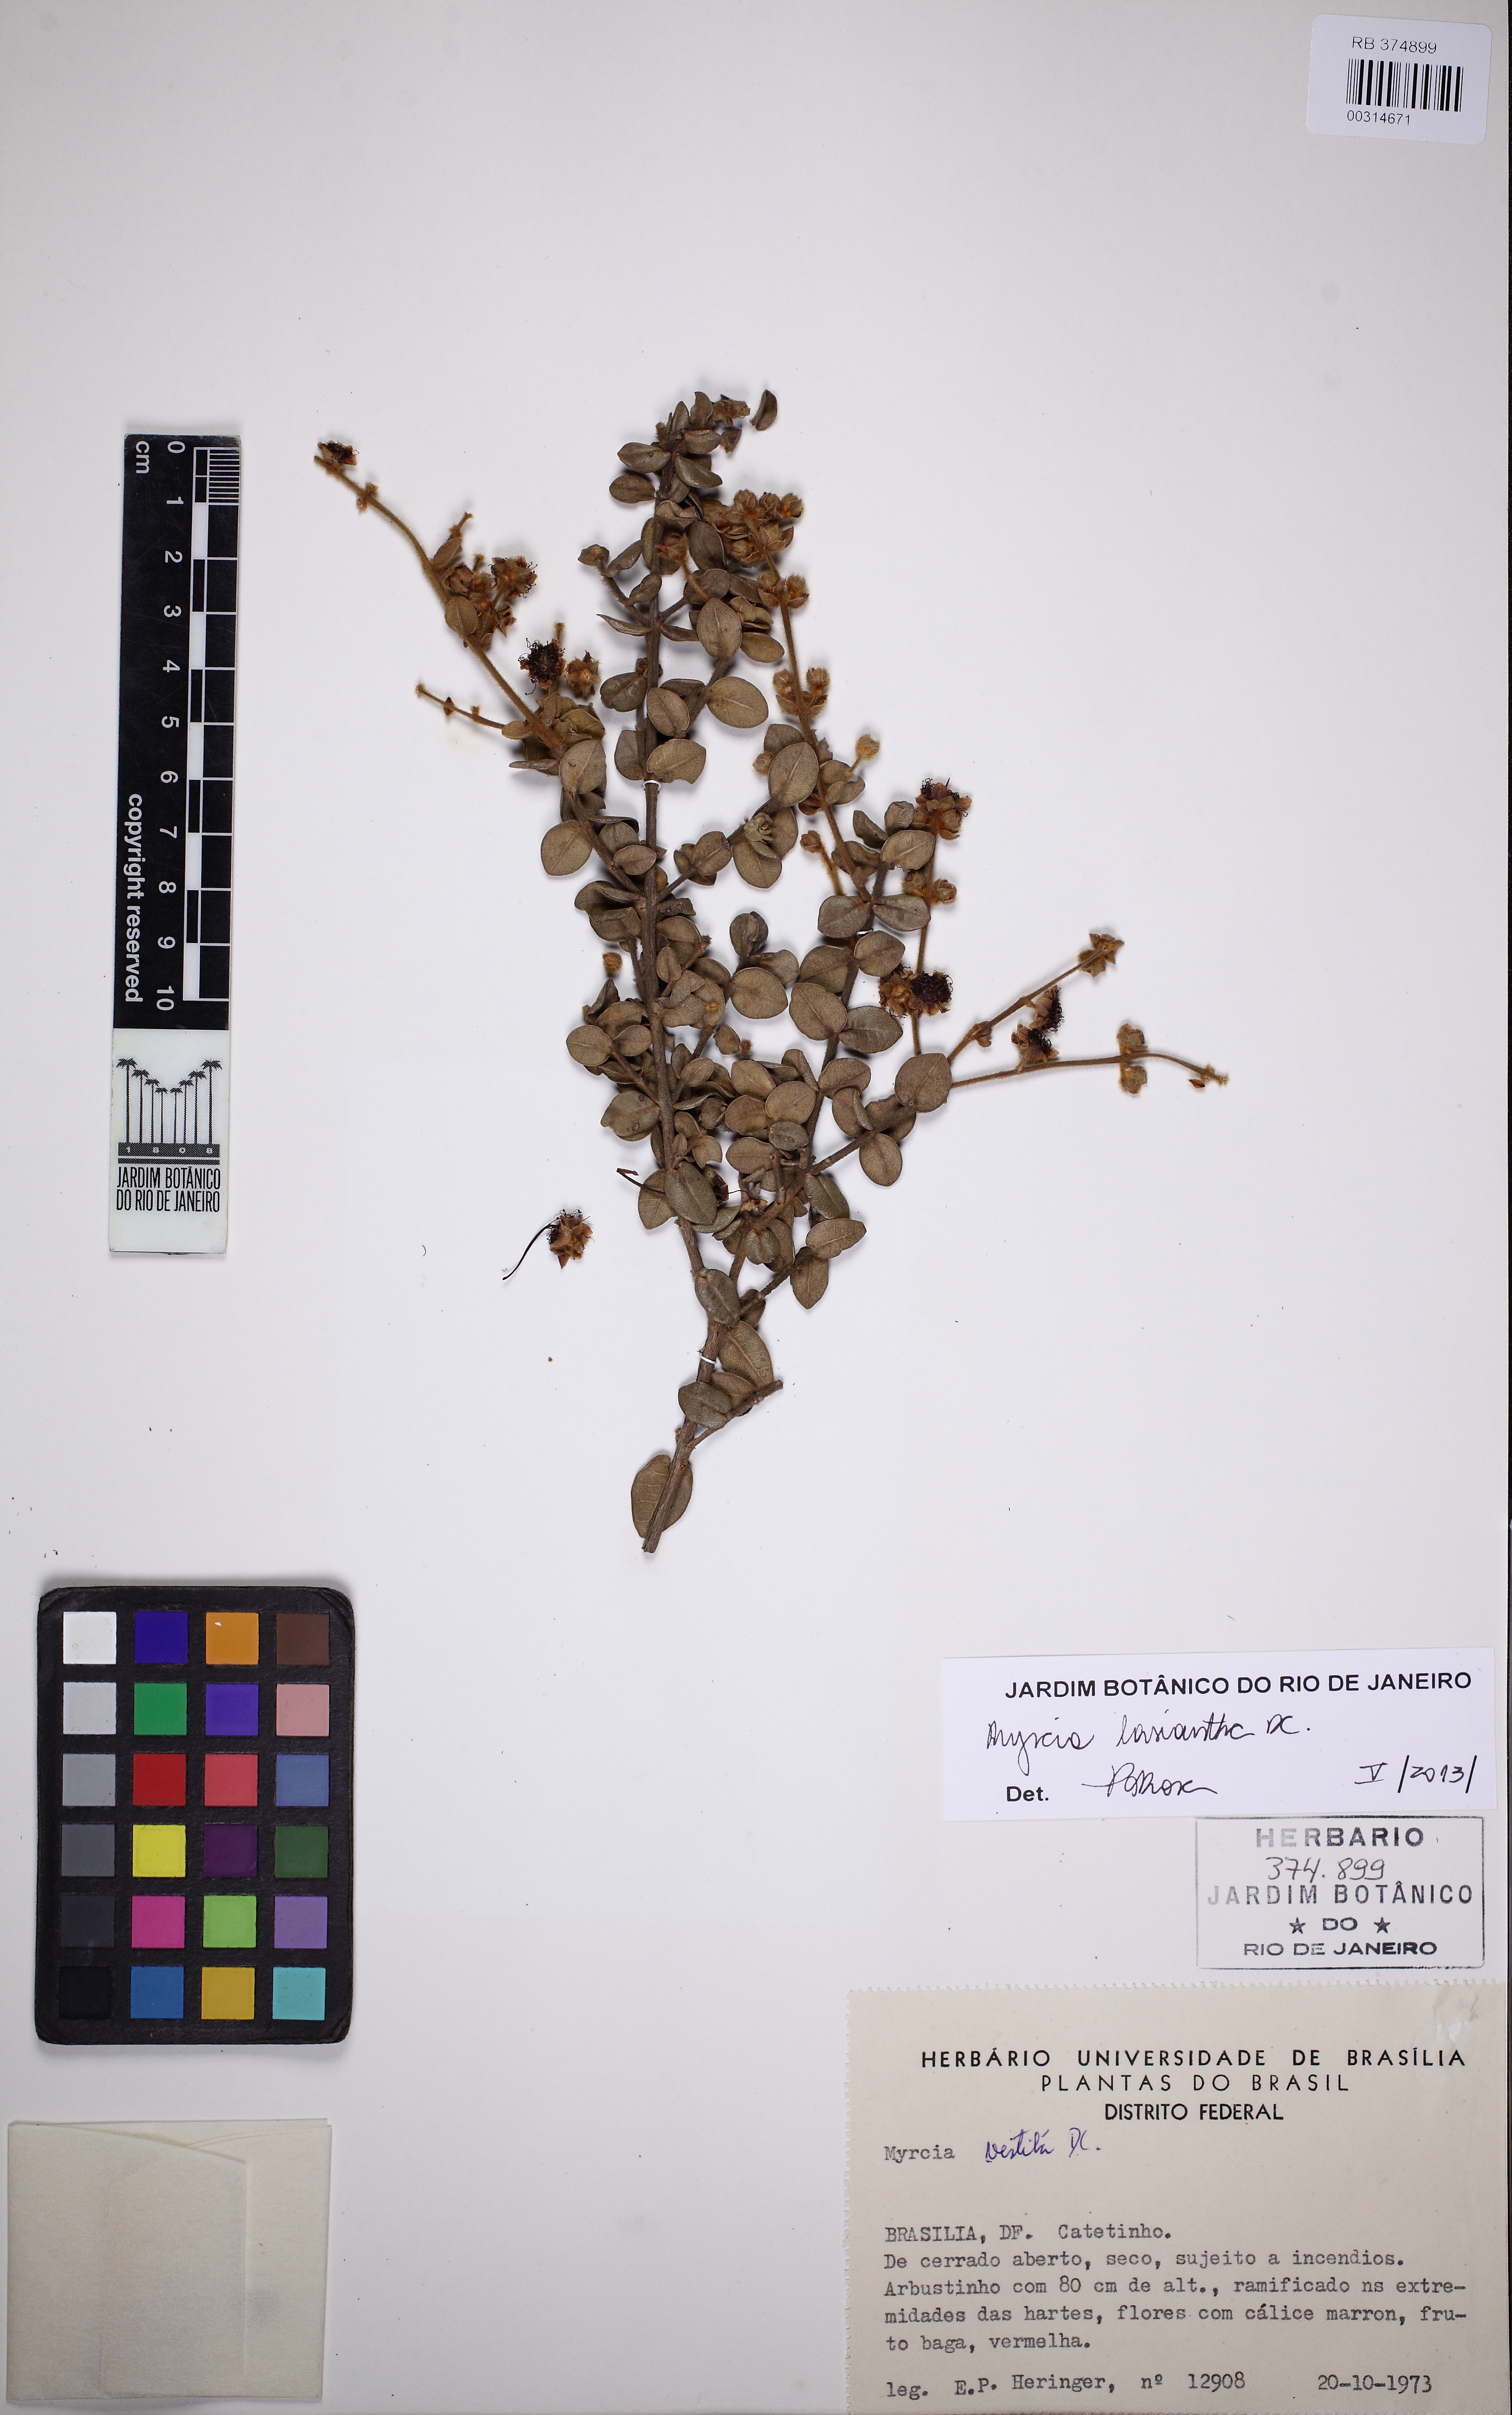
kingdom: Plantae
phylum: Tracheophyta
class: Magnoliopsida
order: Myrtales
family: Myrtaceae
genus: Myrcia
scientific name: Myrcia lasiantha
